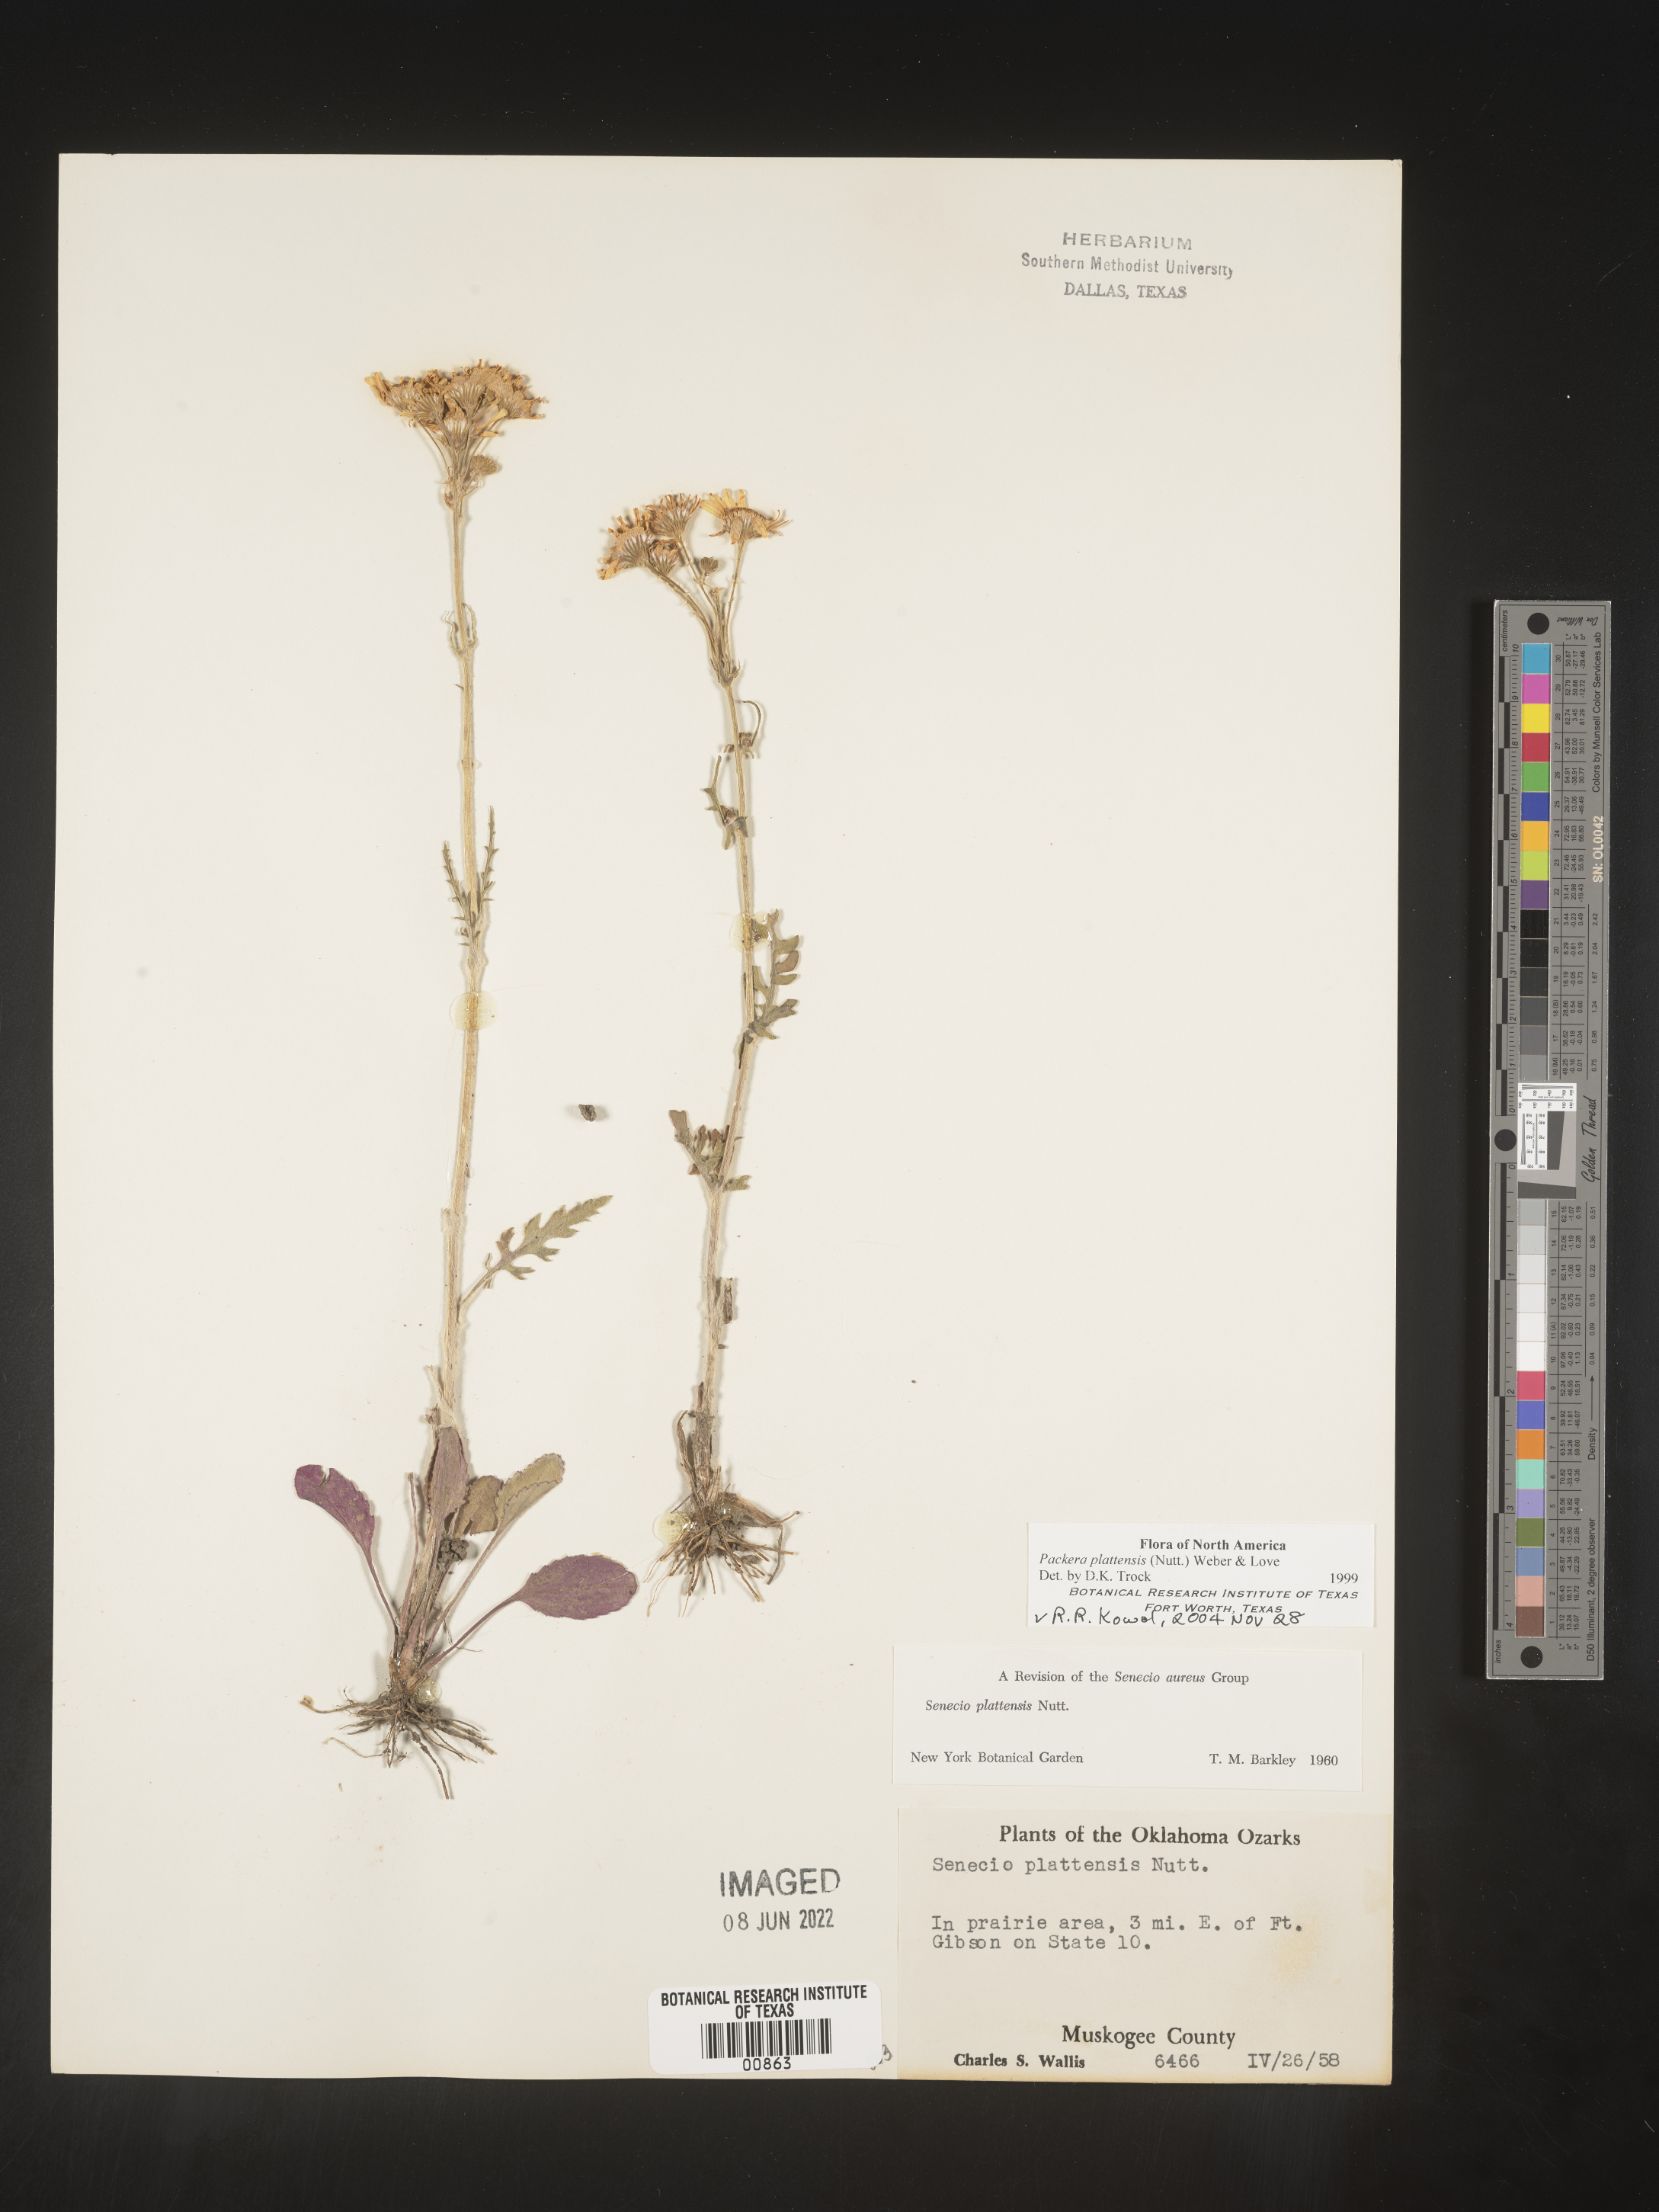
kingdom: Plantae
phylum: Tracheophyta
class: Magnoliopsida
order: Asterales
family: Asteraceae
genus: Packera
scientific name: Packera plattensis
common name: Prairie groundsel
